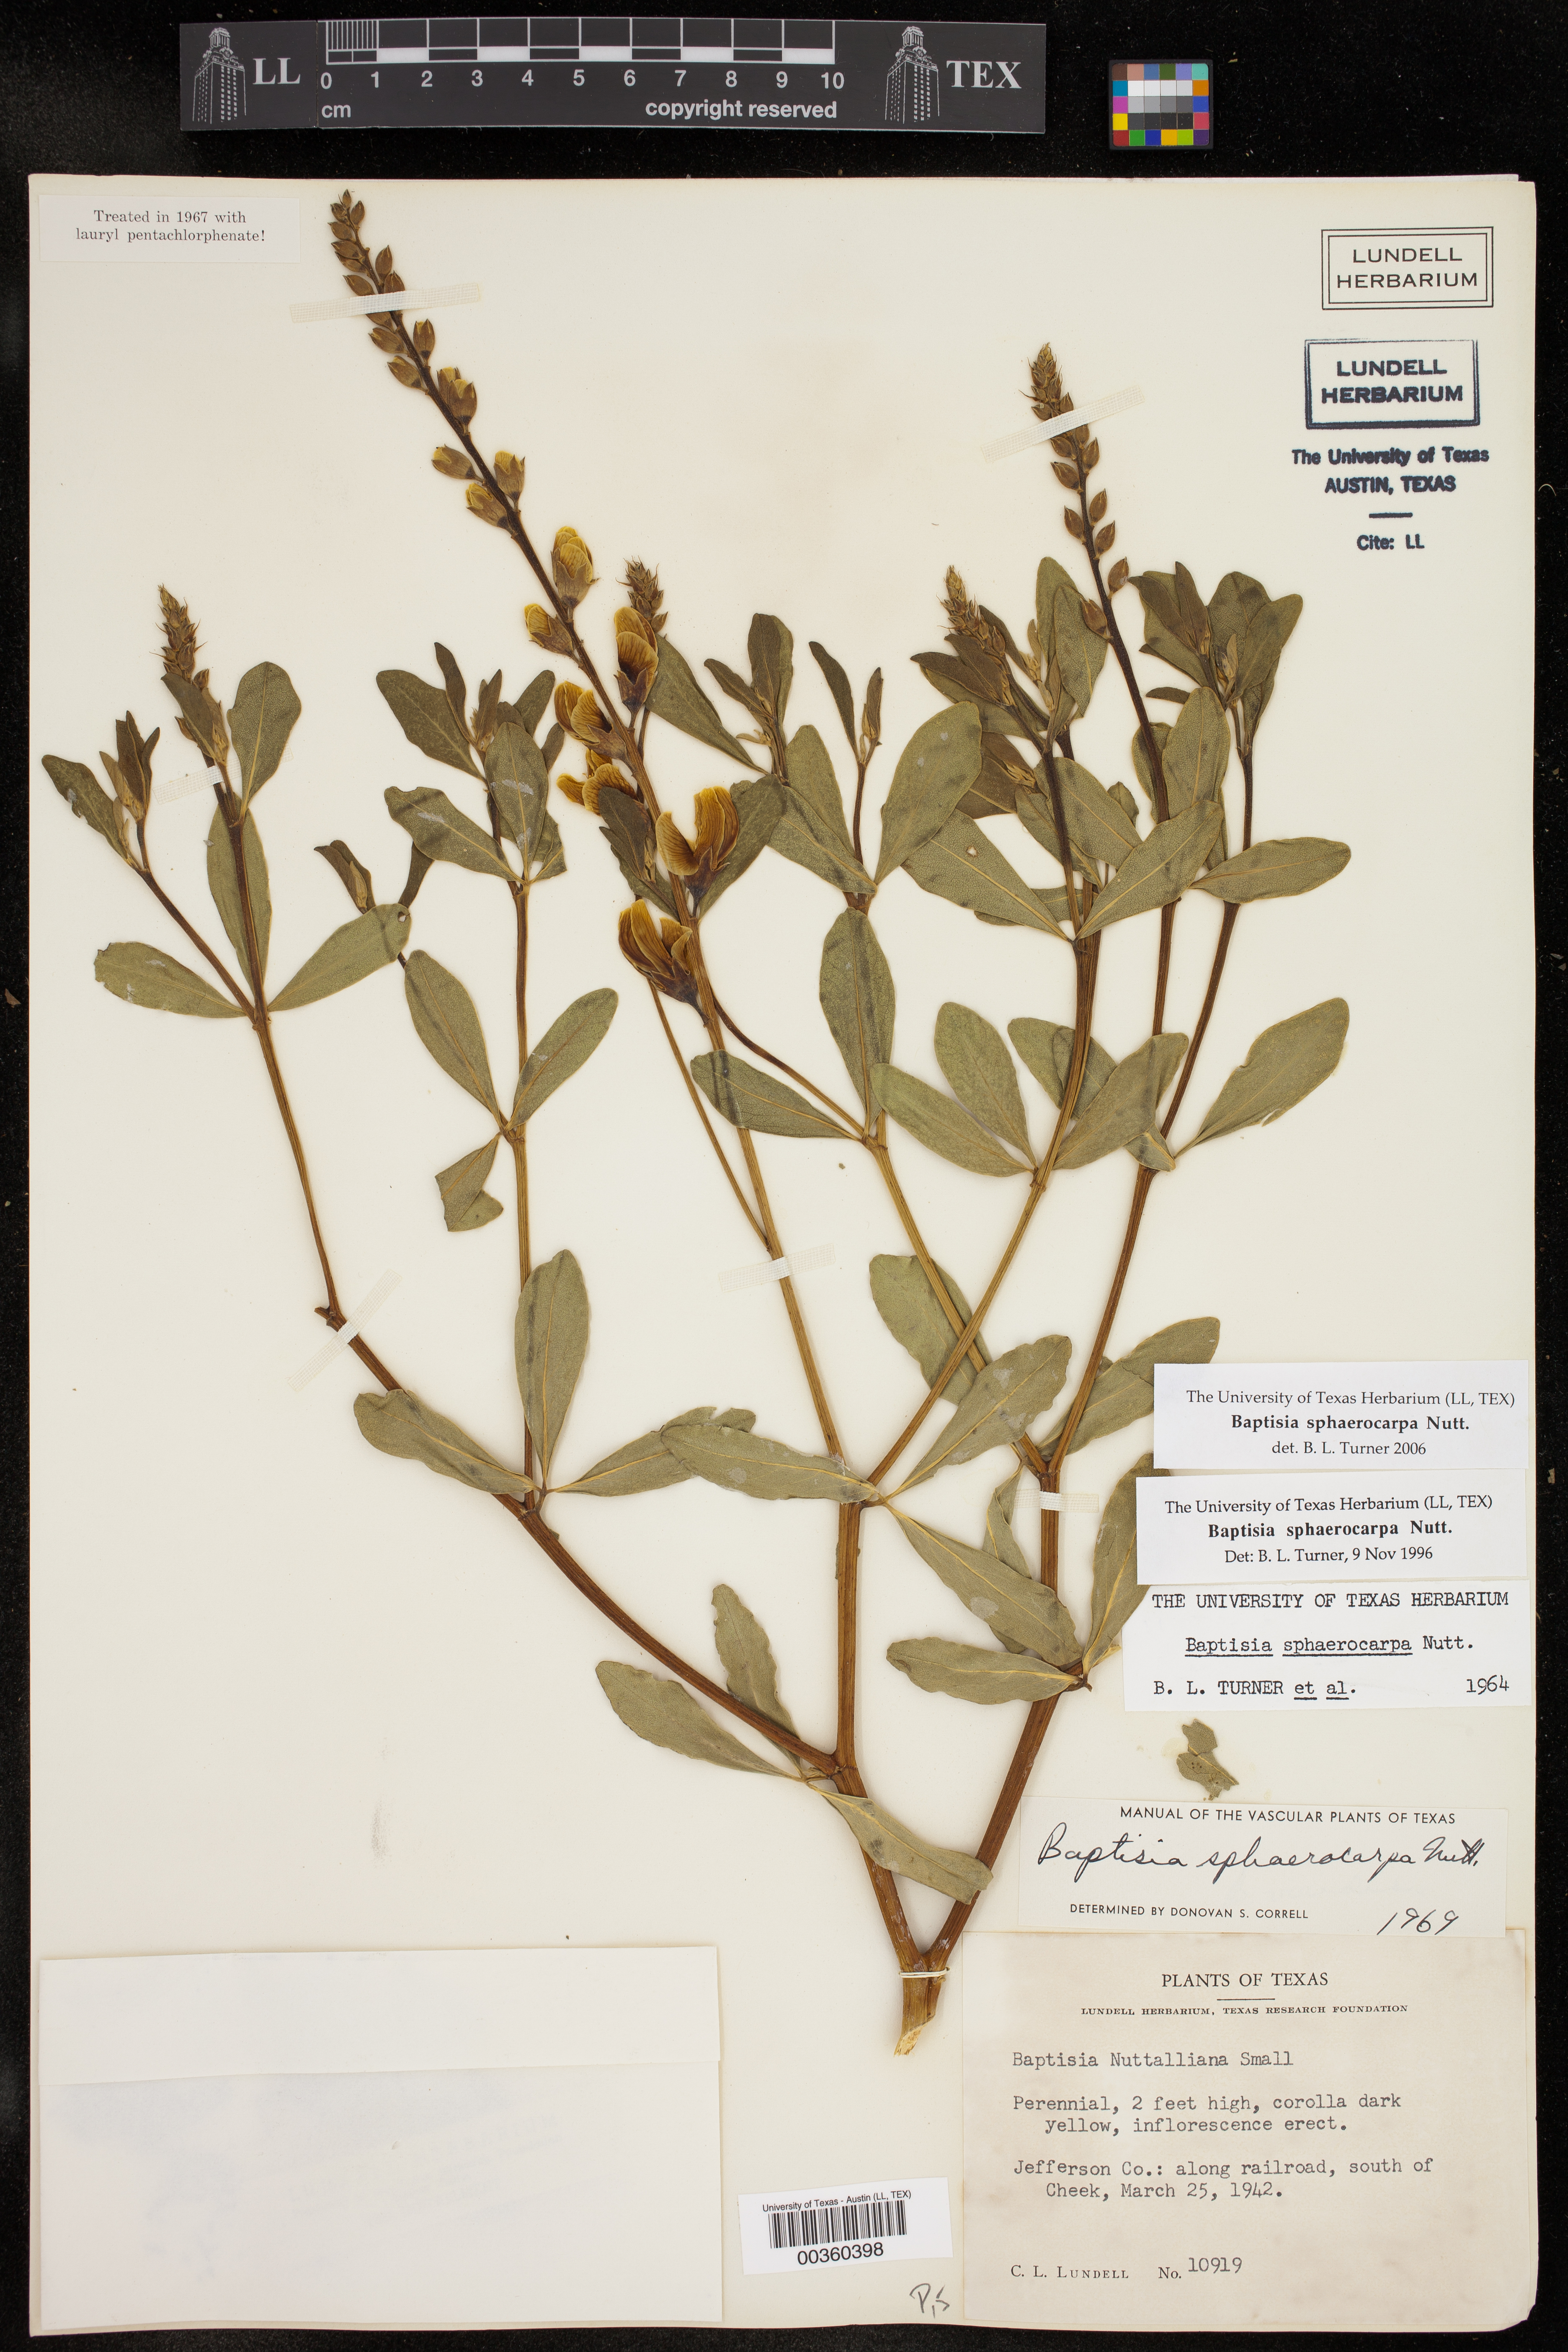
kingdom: Plantae
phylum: Tracheophyta
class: Magnoliopsida
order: Fabales
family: Fabaceae
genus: Baptisia
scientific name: Baptisia sphaerocarpa
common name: Round wild indigo
